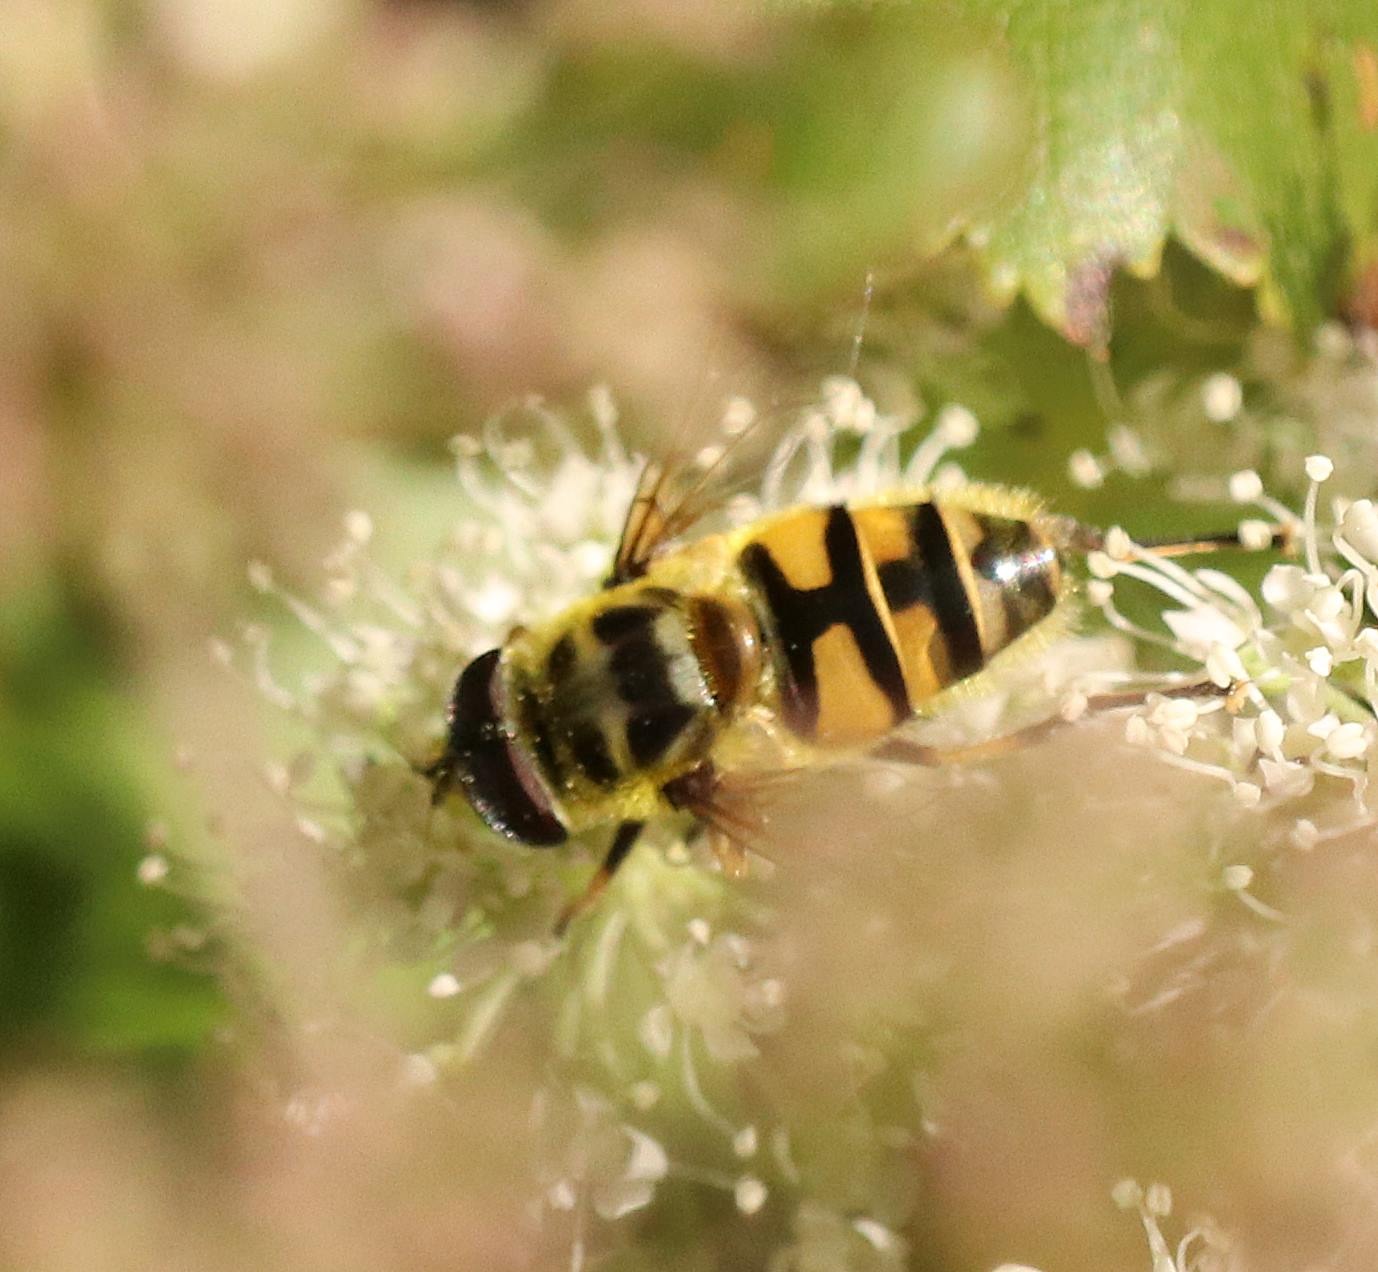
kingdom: Animalia
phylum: Arthropoda
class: Insecta
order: Diptera
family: Syrphidae
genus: Myathropa
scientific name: Myathropa florea
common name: Dødningehoved-svirreflue
